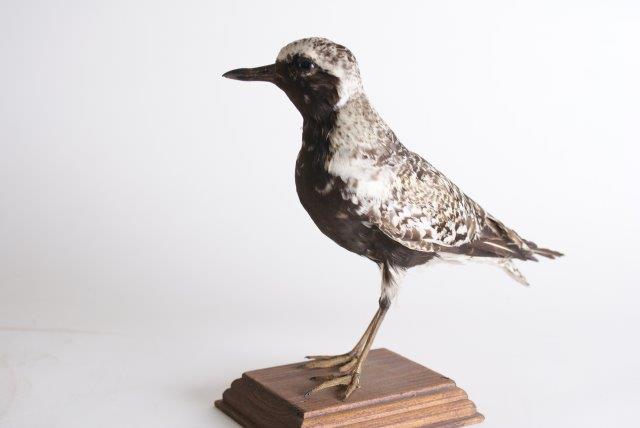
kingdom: Animalia
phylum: Chordata
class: Aves
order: Charadriiformes
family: Charadriidae
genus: Pluvialis
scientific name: Pluvialis squatarola
